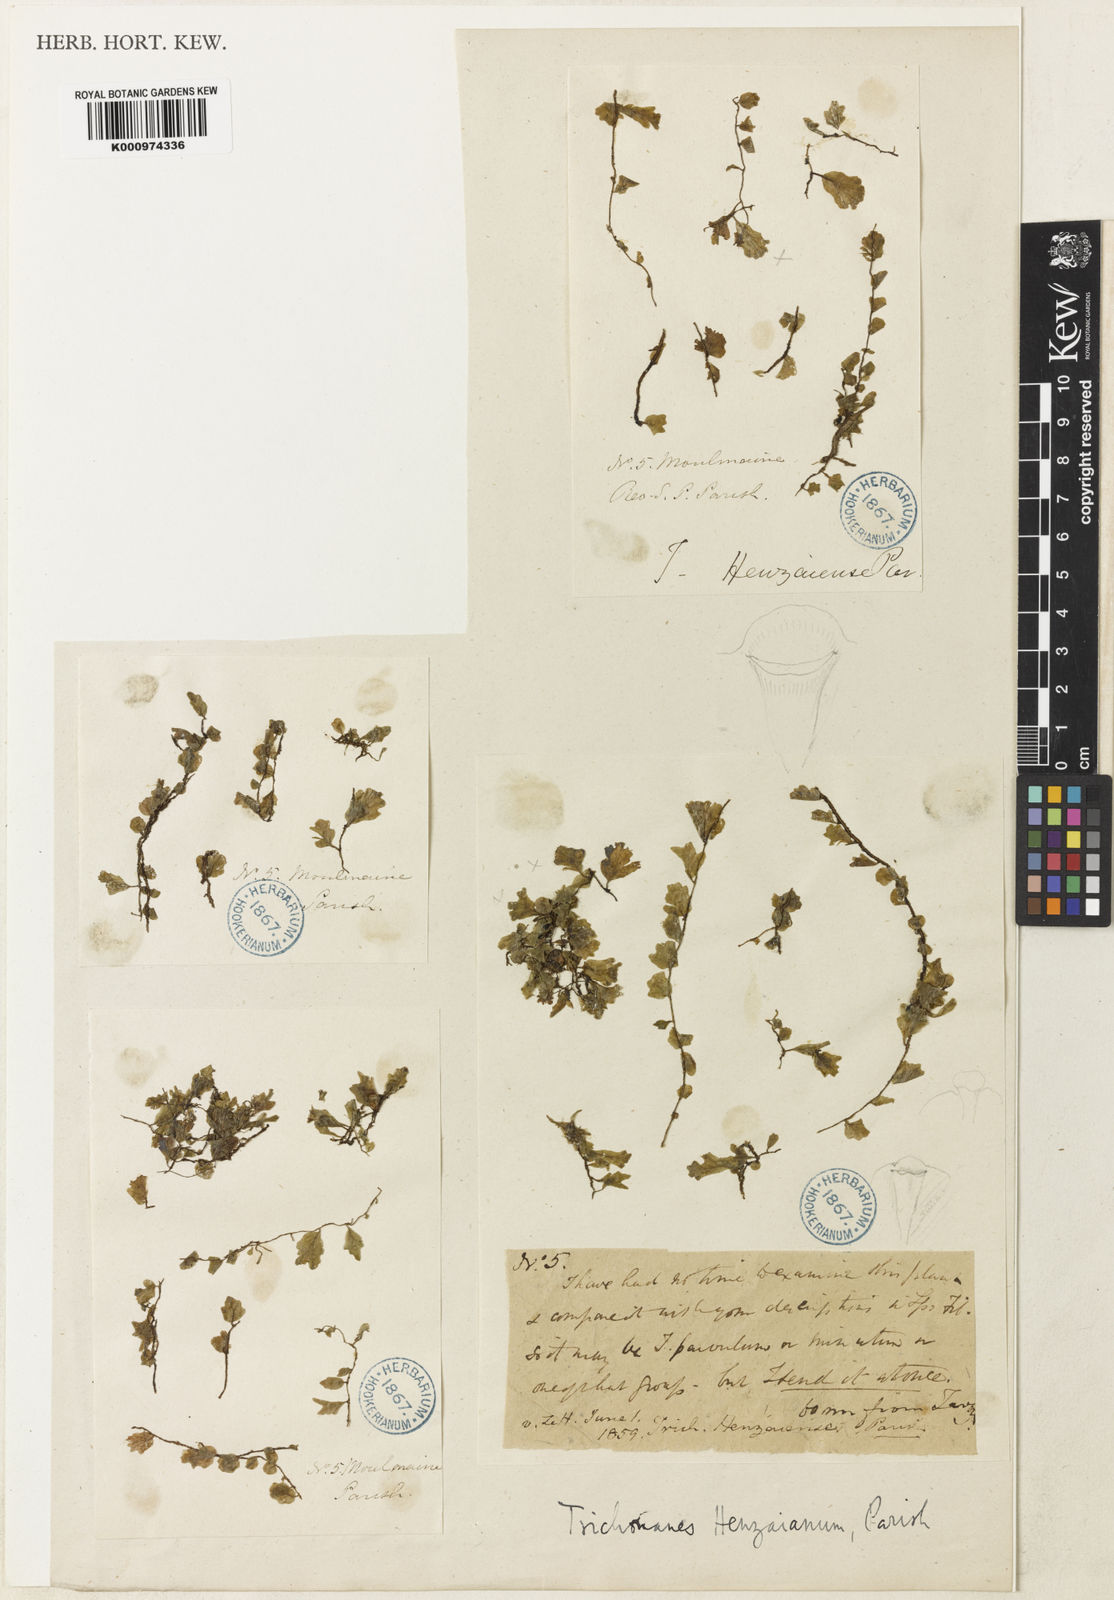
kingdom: Plantae
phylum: Tracheophyta
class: Polypodiopsida
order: Hymenophyllales
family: Hymenophyllaceae
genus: Trichomanes
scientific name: Trichomanes
